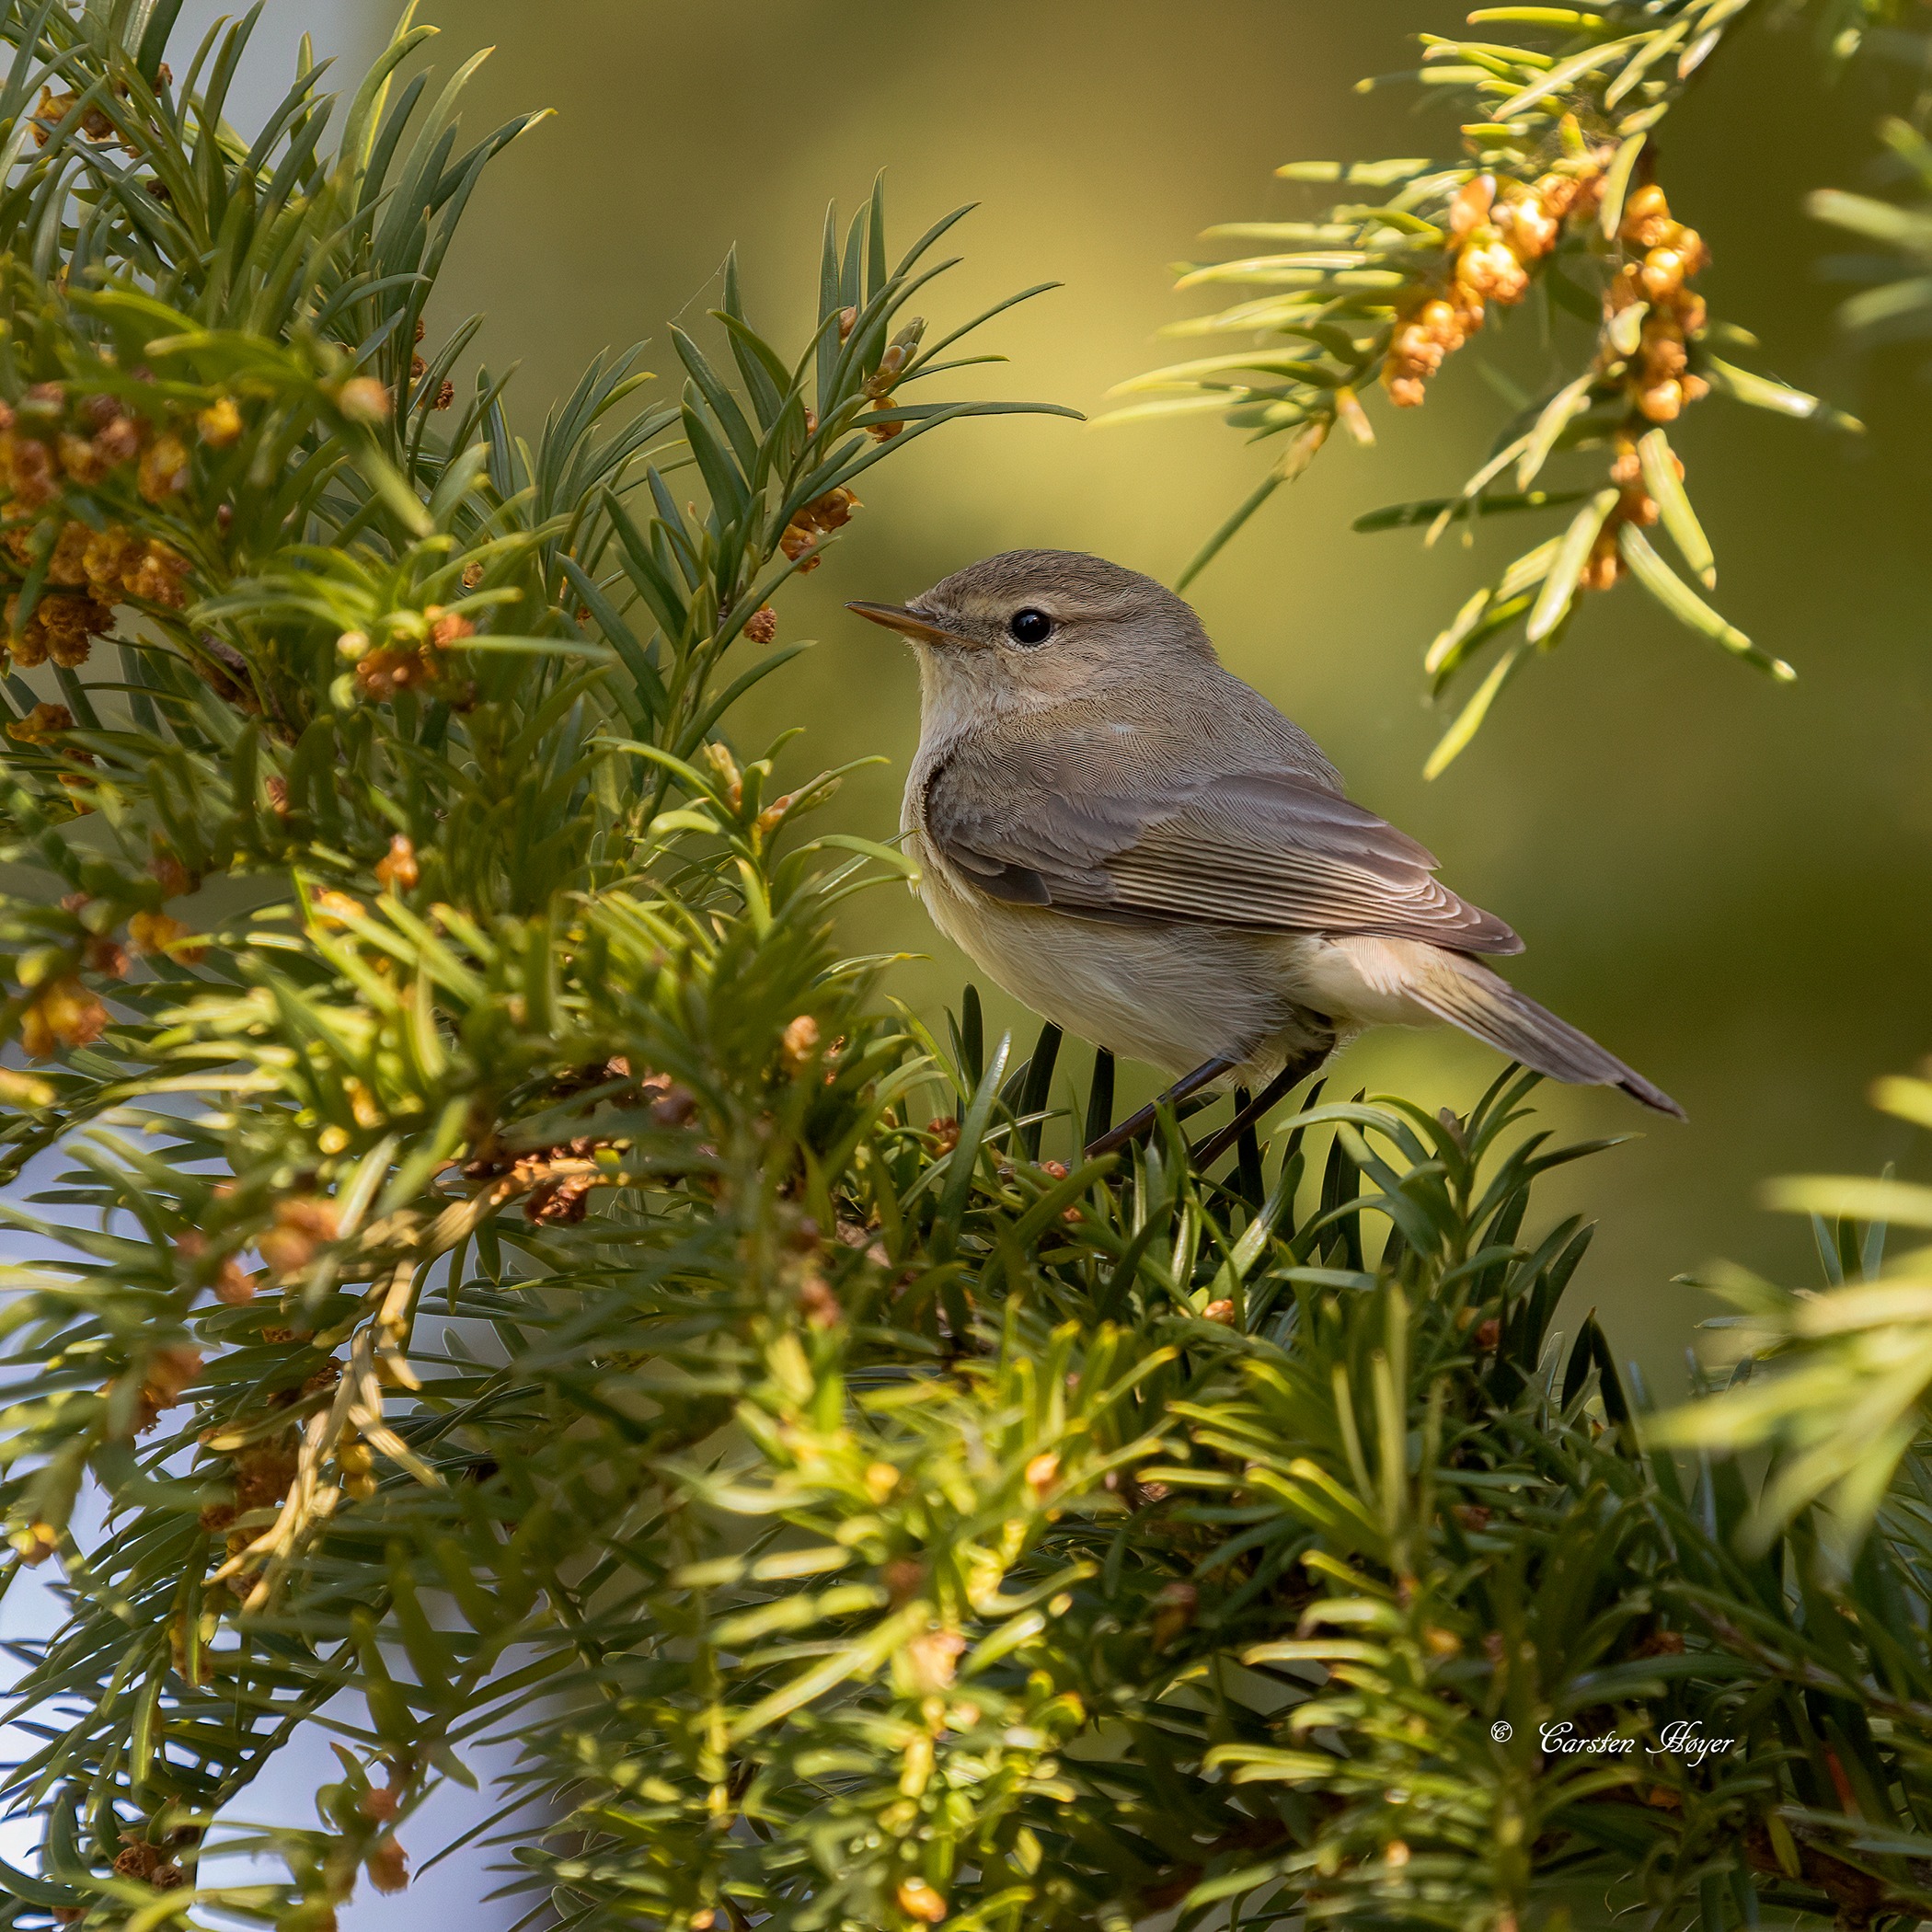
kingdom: Animalia
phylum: Chordata
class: Aves
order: Passeriformes
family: Phylloscopidae
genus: Phylloscopus
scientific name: Phylloscopus collybita
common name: Gransanger
